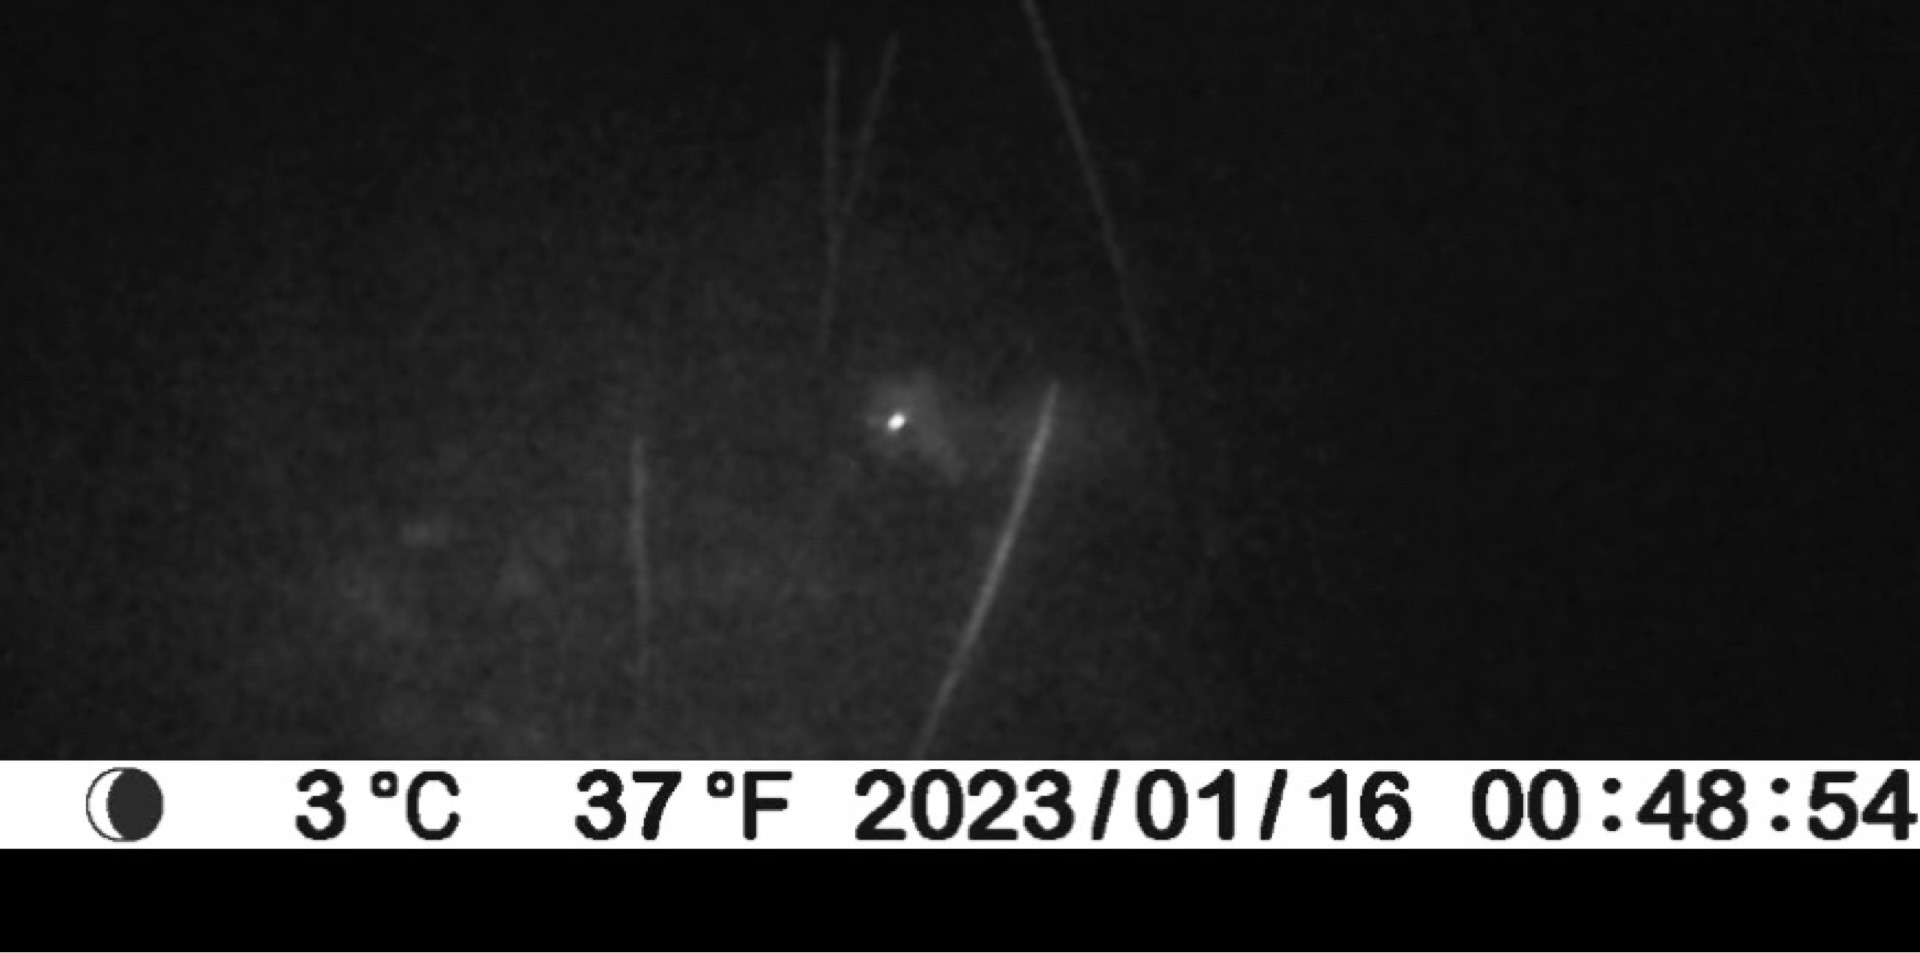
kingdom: Animalia
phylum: Chordata
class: Mammalia
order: Carnivora
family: Mustelidae
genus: Martes
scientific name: Martes foina
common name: Husmår
